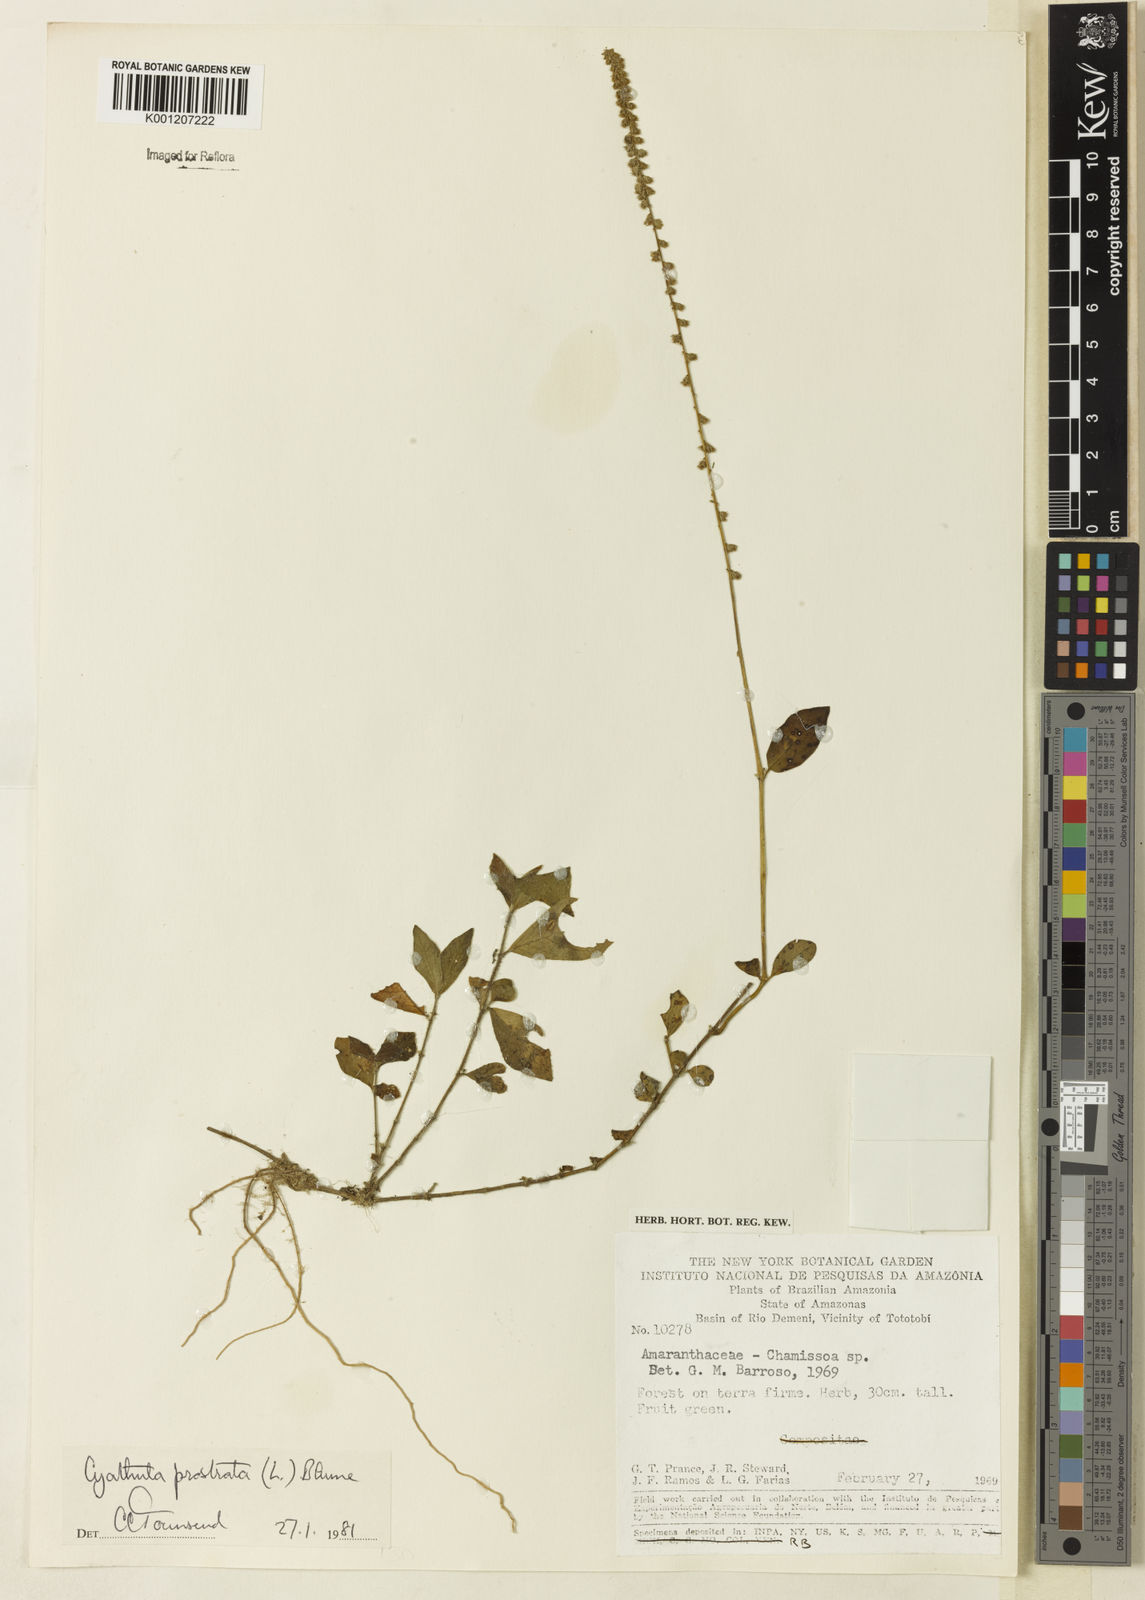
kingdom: Plantae
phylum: Tracheophyta
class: Magnoliopsida
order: Caryophyllales
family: Amaranthaceae
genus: Cyathula
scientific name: Cyathula prostrata
